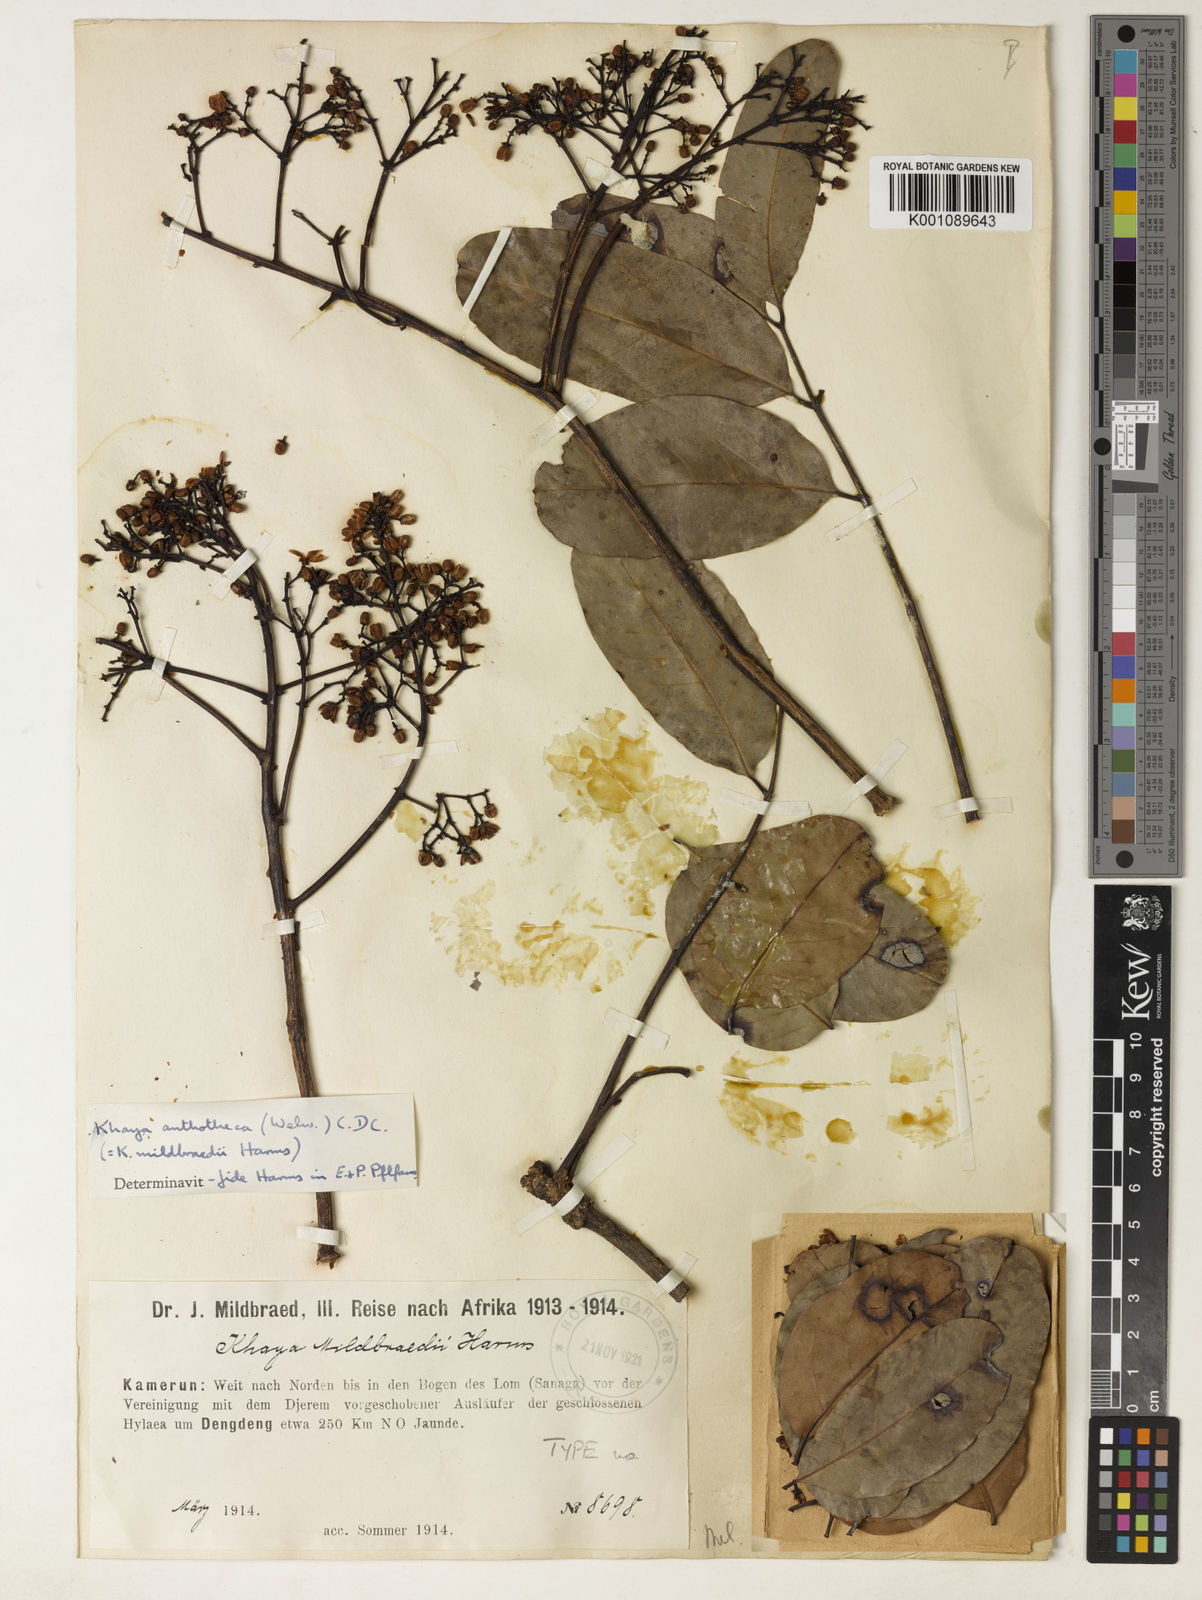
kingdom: Plantae
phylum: Tracheophyta
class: Magnoliopsida
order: Sapindales
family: Meliaceae
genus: Khaya
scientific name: Khaya euryphylla
